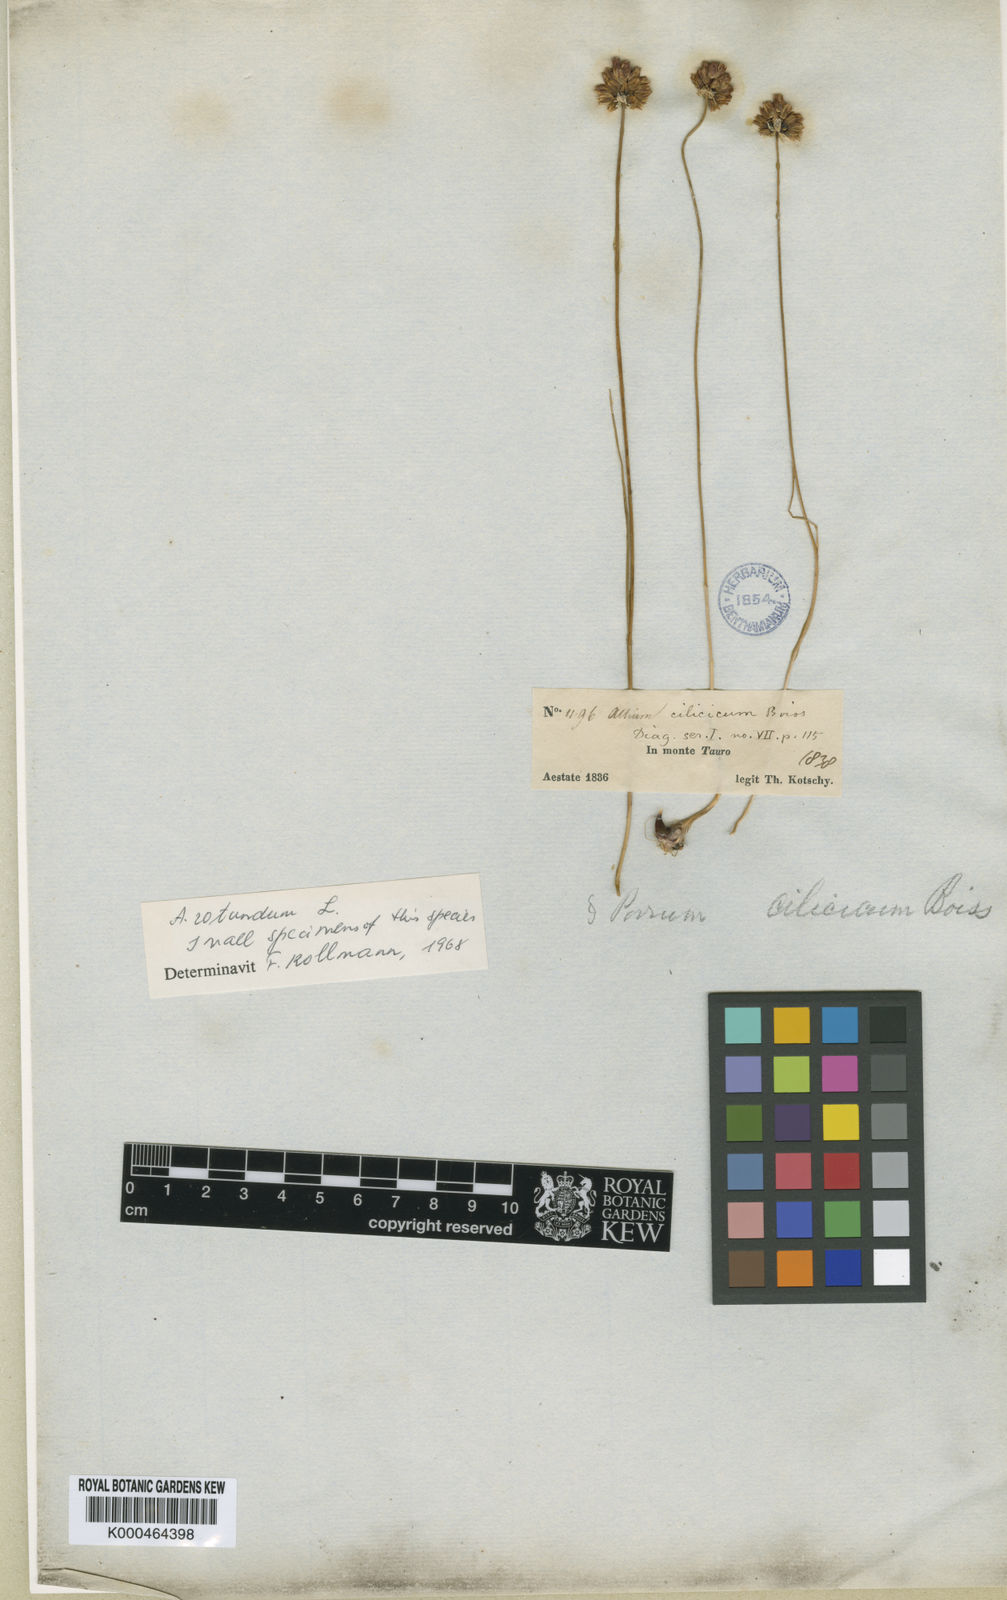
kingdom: Plantae
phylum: Tracheophyta
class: Liliopsida
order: Asparagales
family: Amaryllidaceae
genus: Allium
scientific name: Allium rotundum
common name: Sand leek
